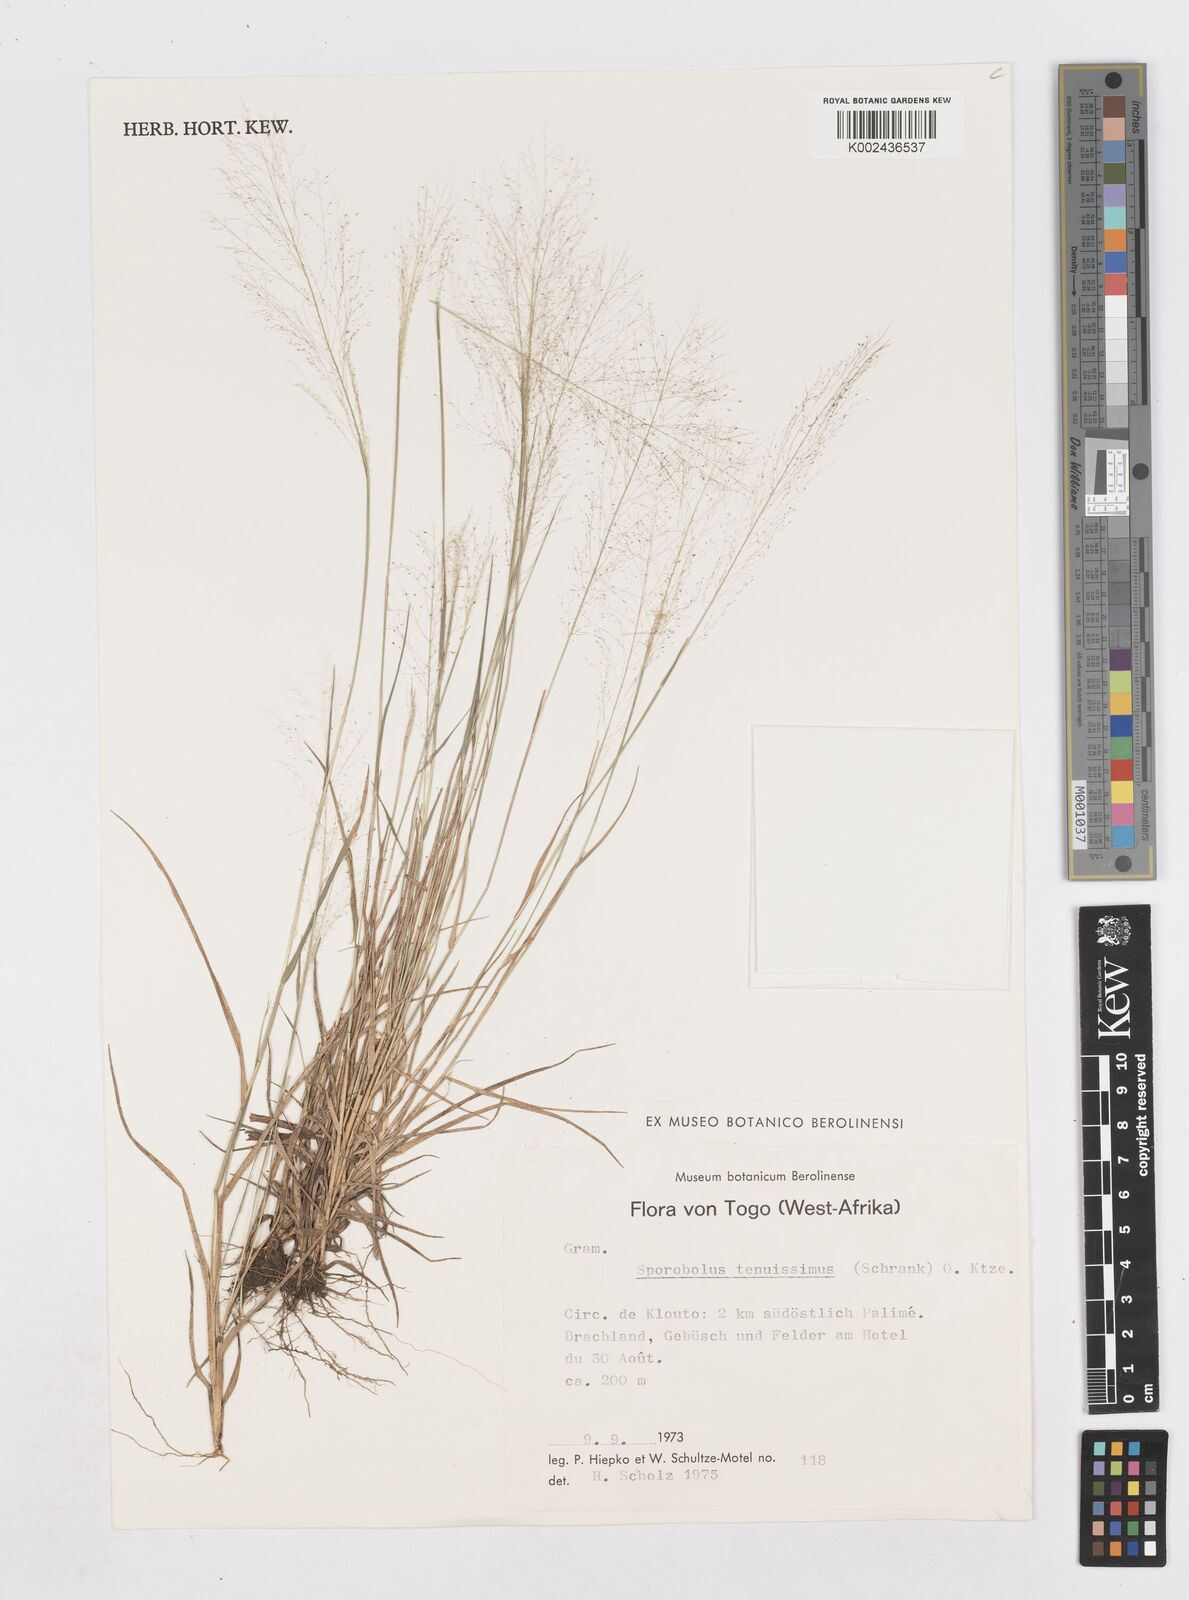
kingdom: Plantae
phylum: Tracheophyta
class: Liliopsida
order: Poales
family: Poaceae
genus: Sporobolus
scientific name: Sporobolus tenuissimus
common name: Tropical dropseed
